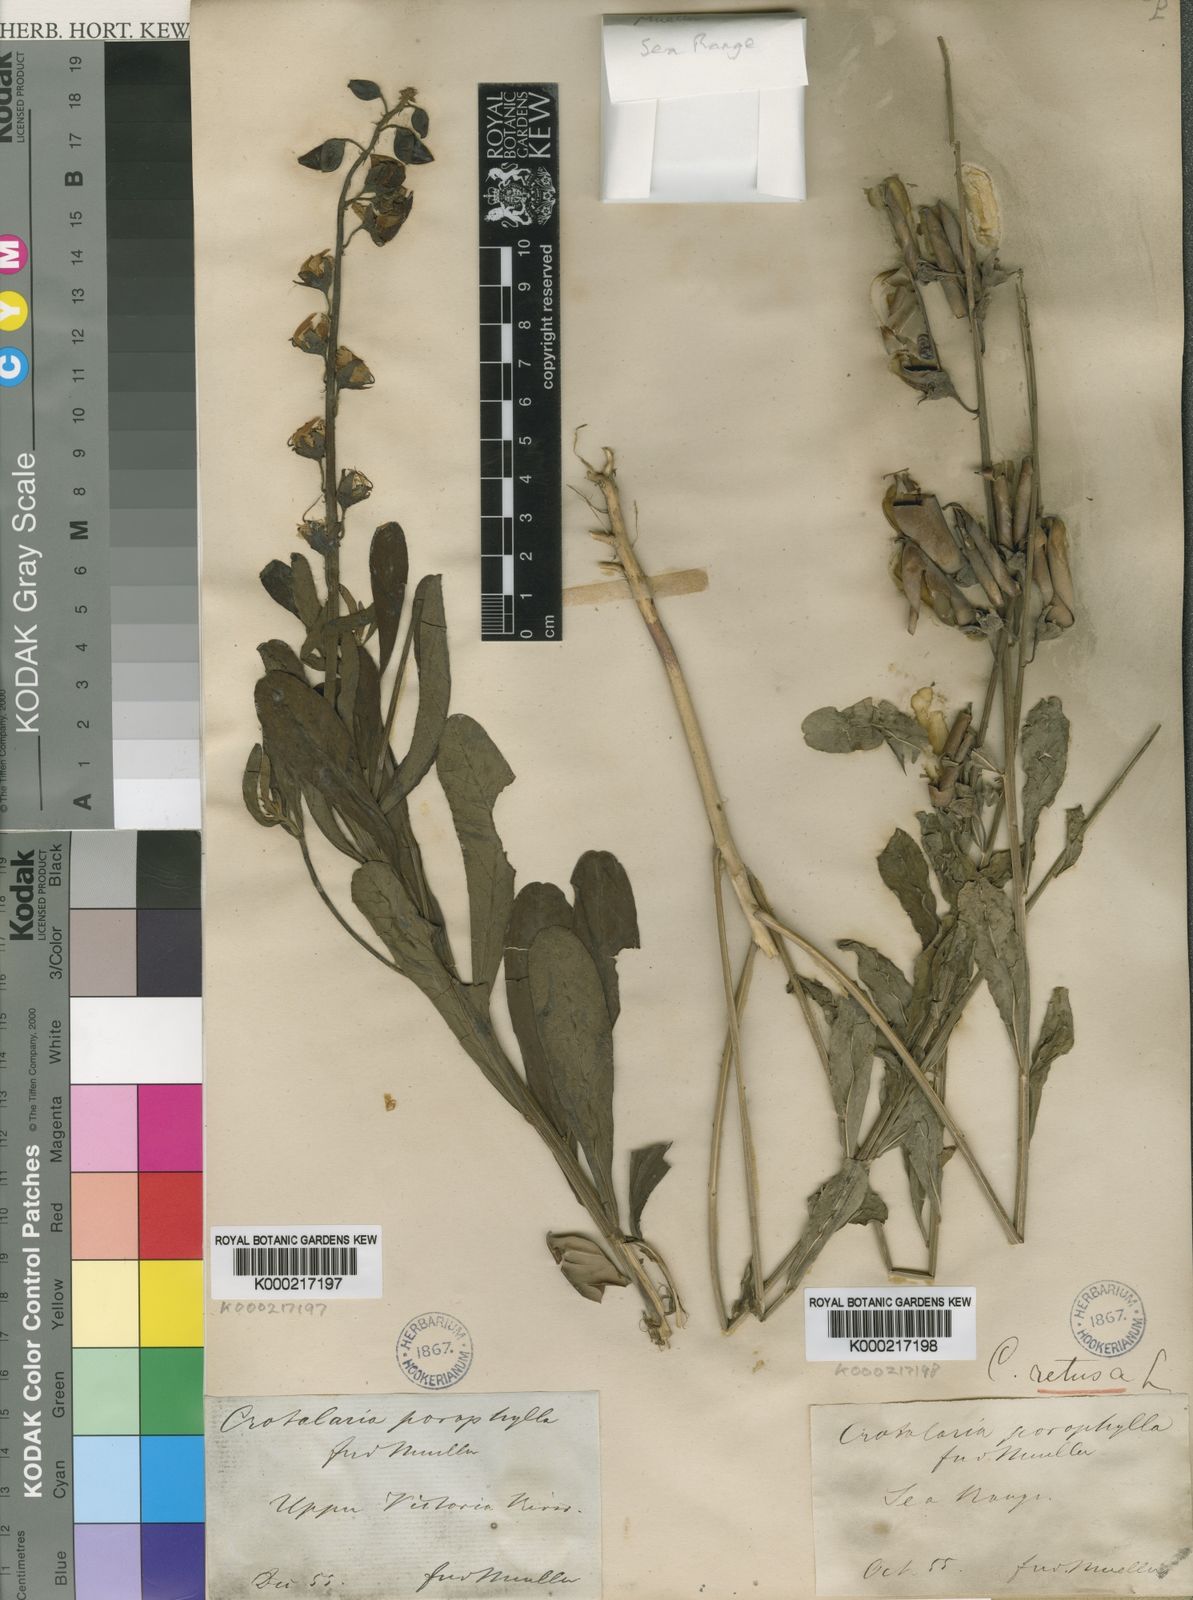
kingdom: Plantae
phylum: Tracheophyta
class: Magnoliopsida
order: Fabales
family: Fabaceae
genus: Crotalaria
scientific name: Crotalaria retusa
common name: Rattleweed
